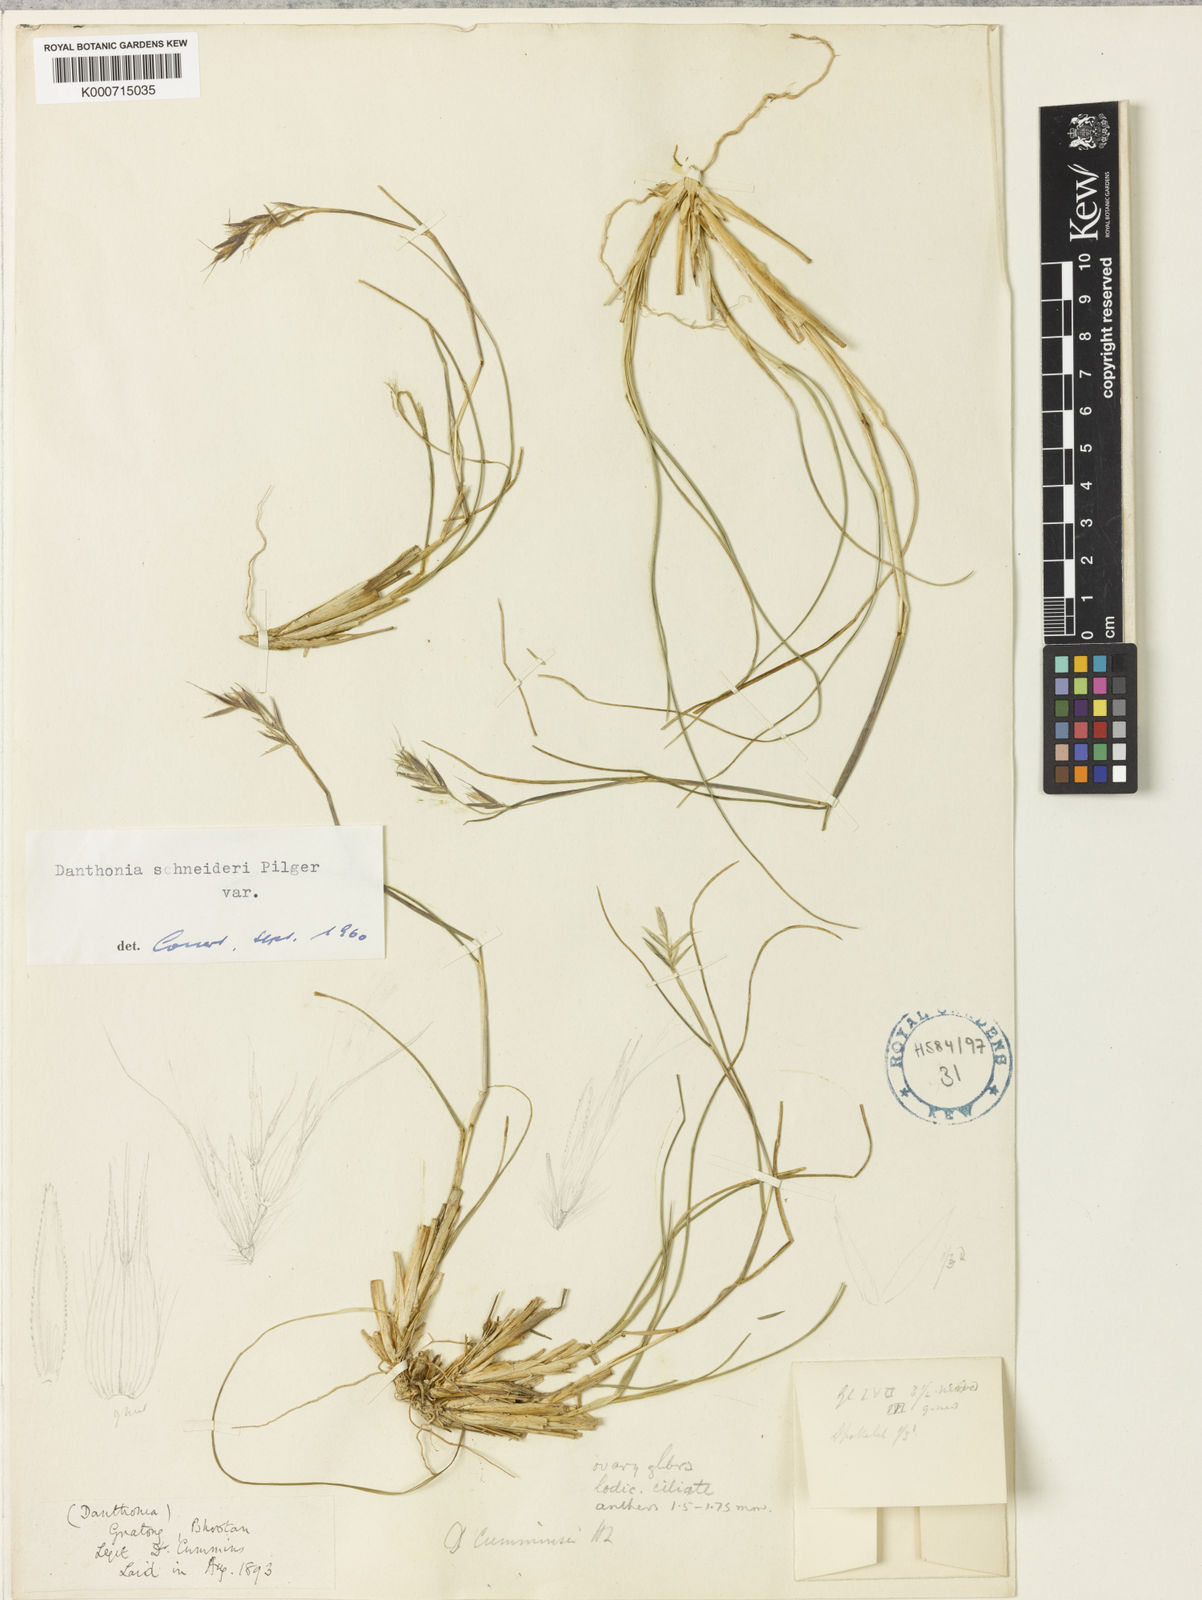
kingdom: Plantae
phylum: Tracheophyta
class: Liliopsida
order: Poales
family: Poaceae
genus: Rytidosperma
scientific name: Rytidosperma
